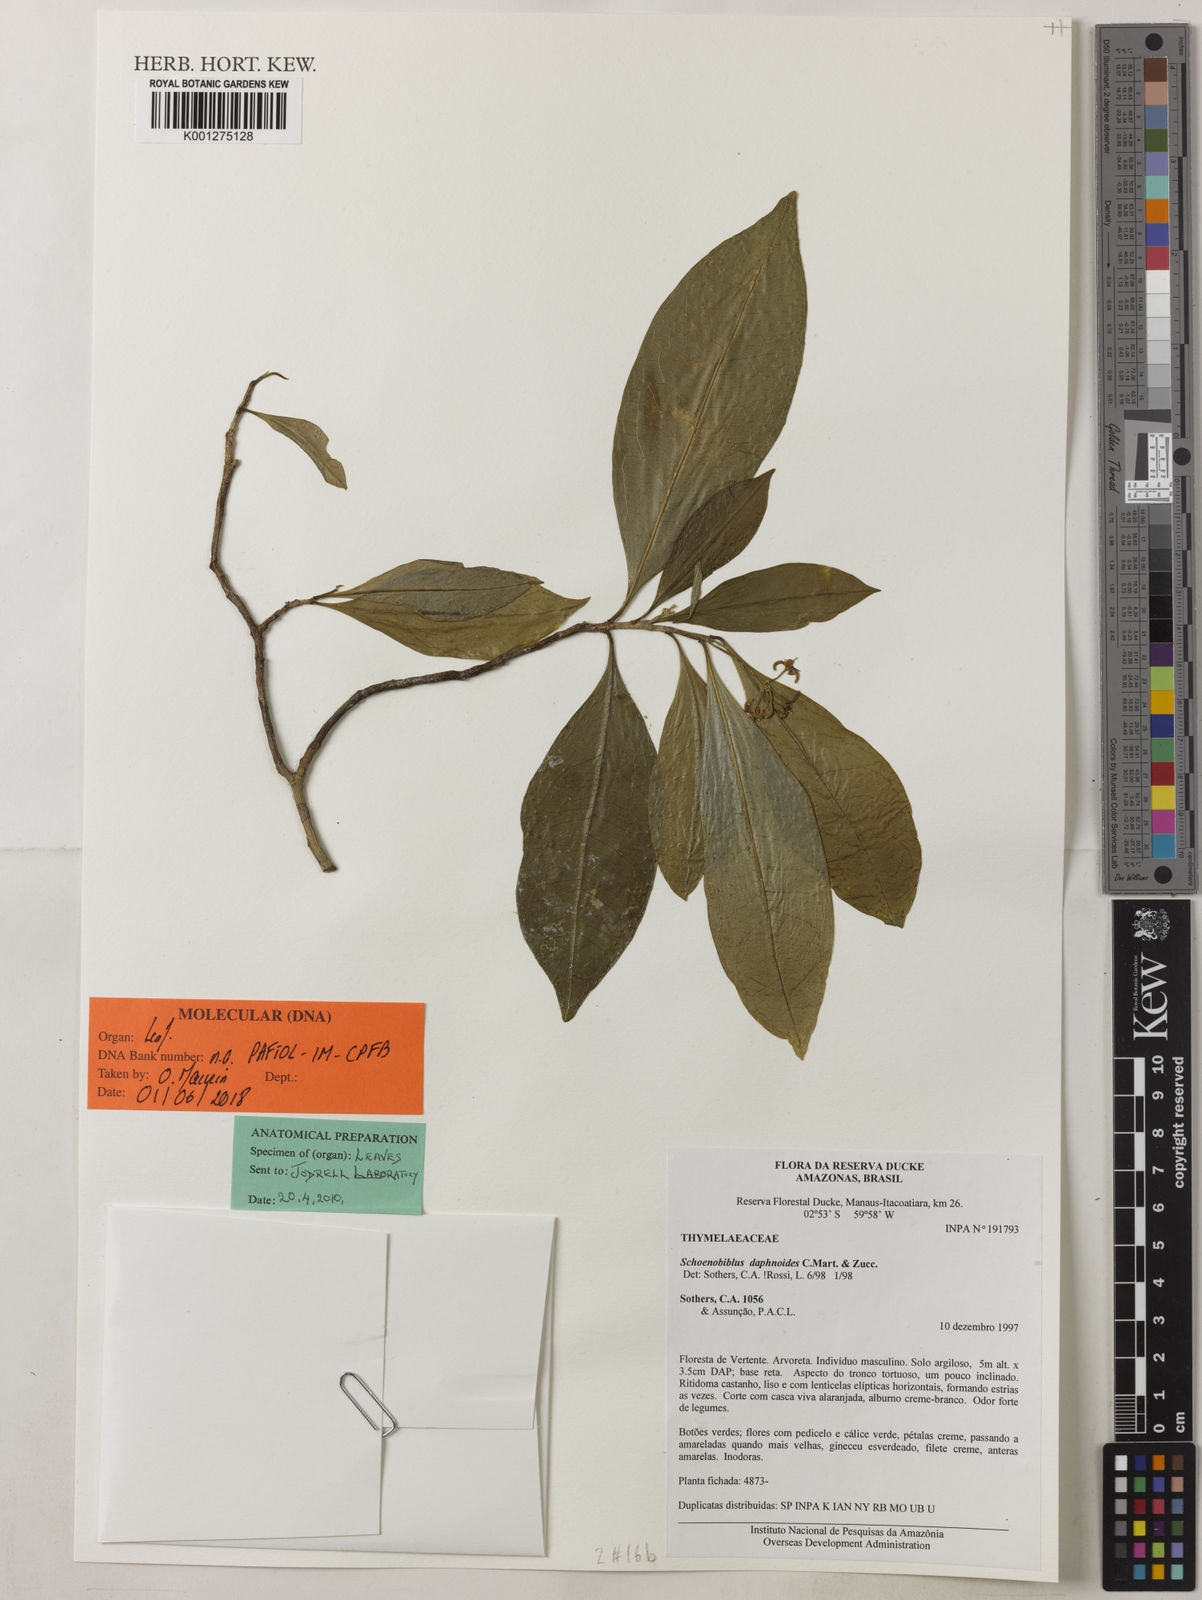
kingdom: Plantae
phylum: Tracheophyta
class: Magnoliopsida
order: Malvales
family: Thymelaeaceae
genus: Schoenobiblus
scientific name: Schoenobiblus daphnoides
